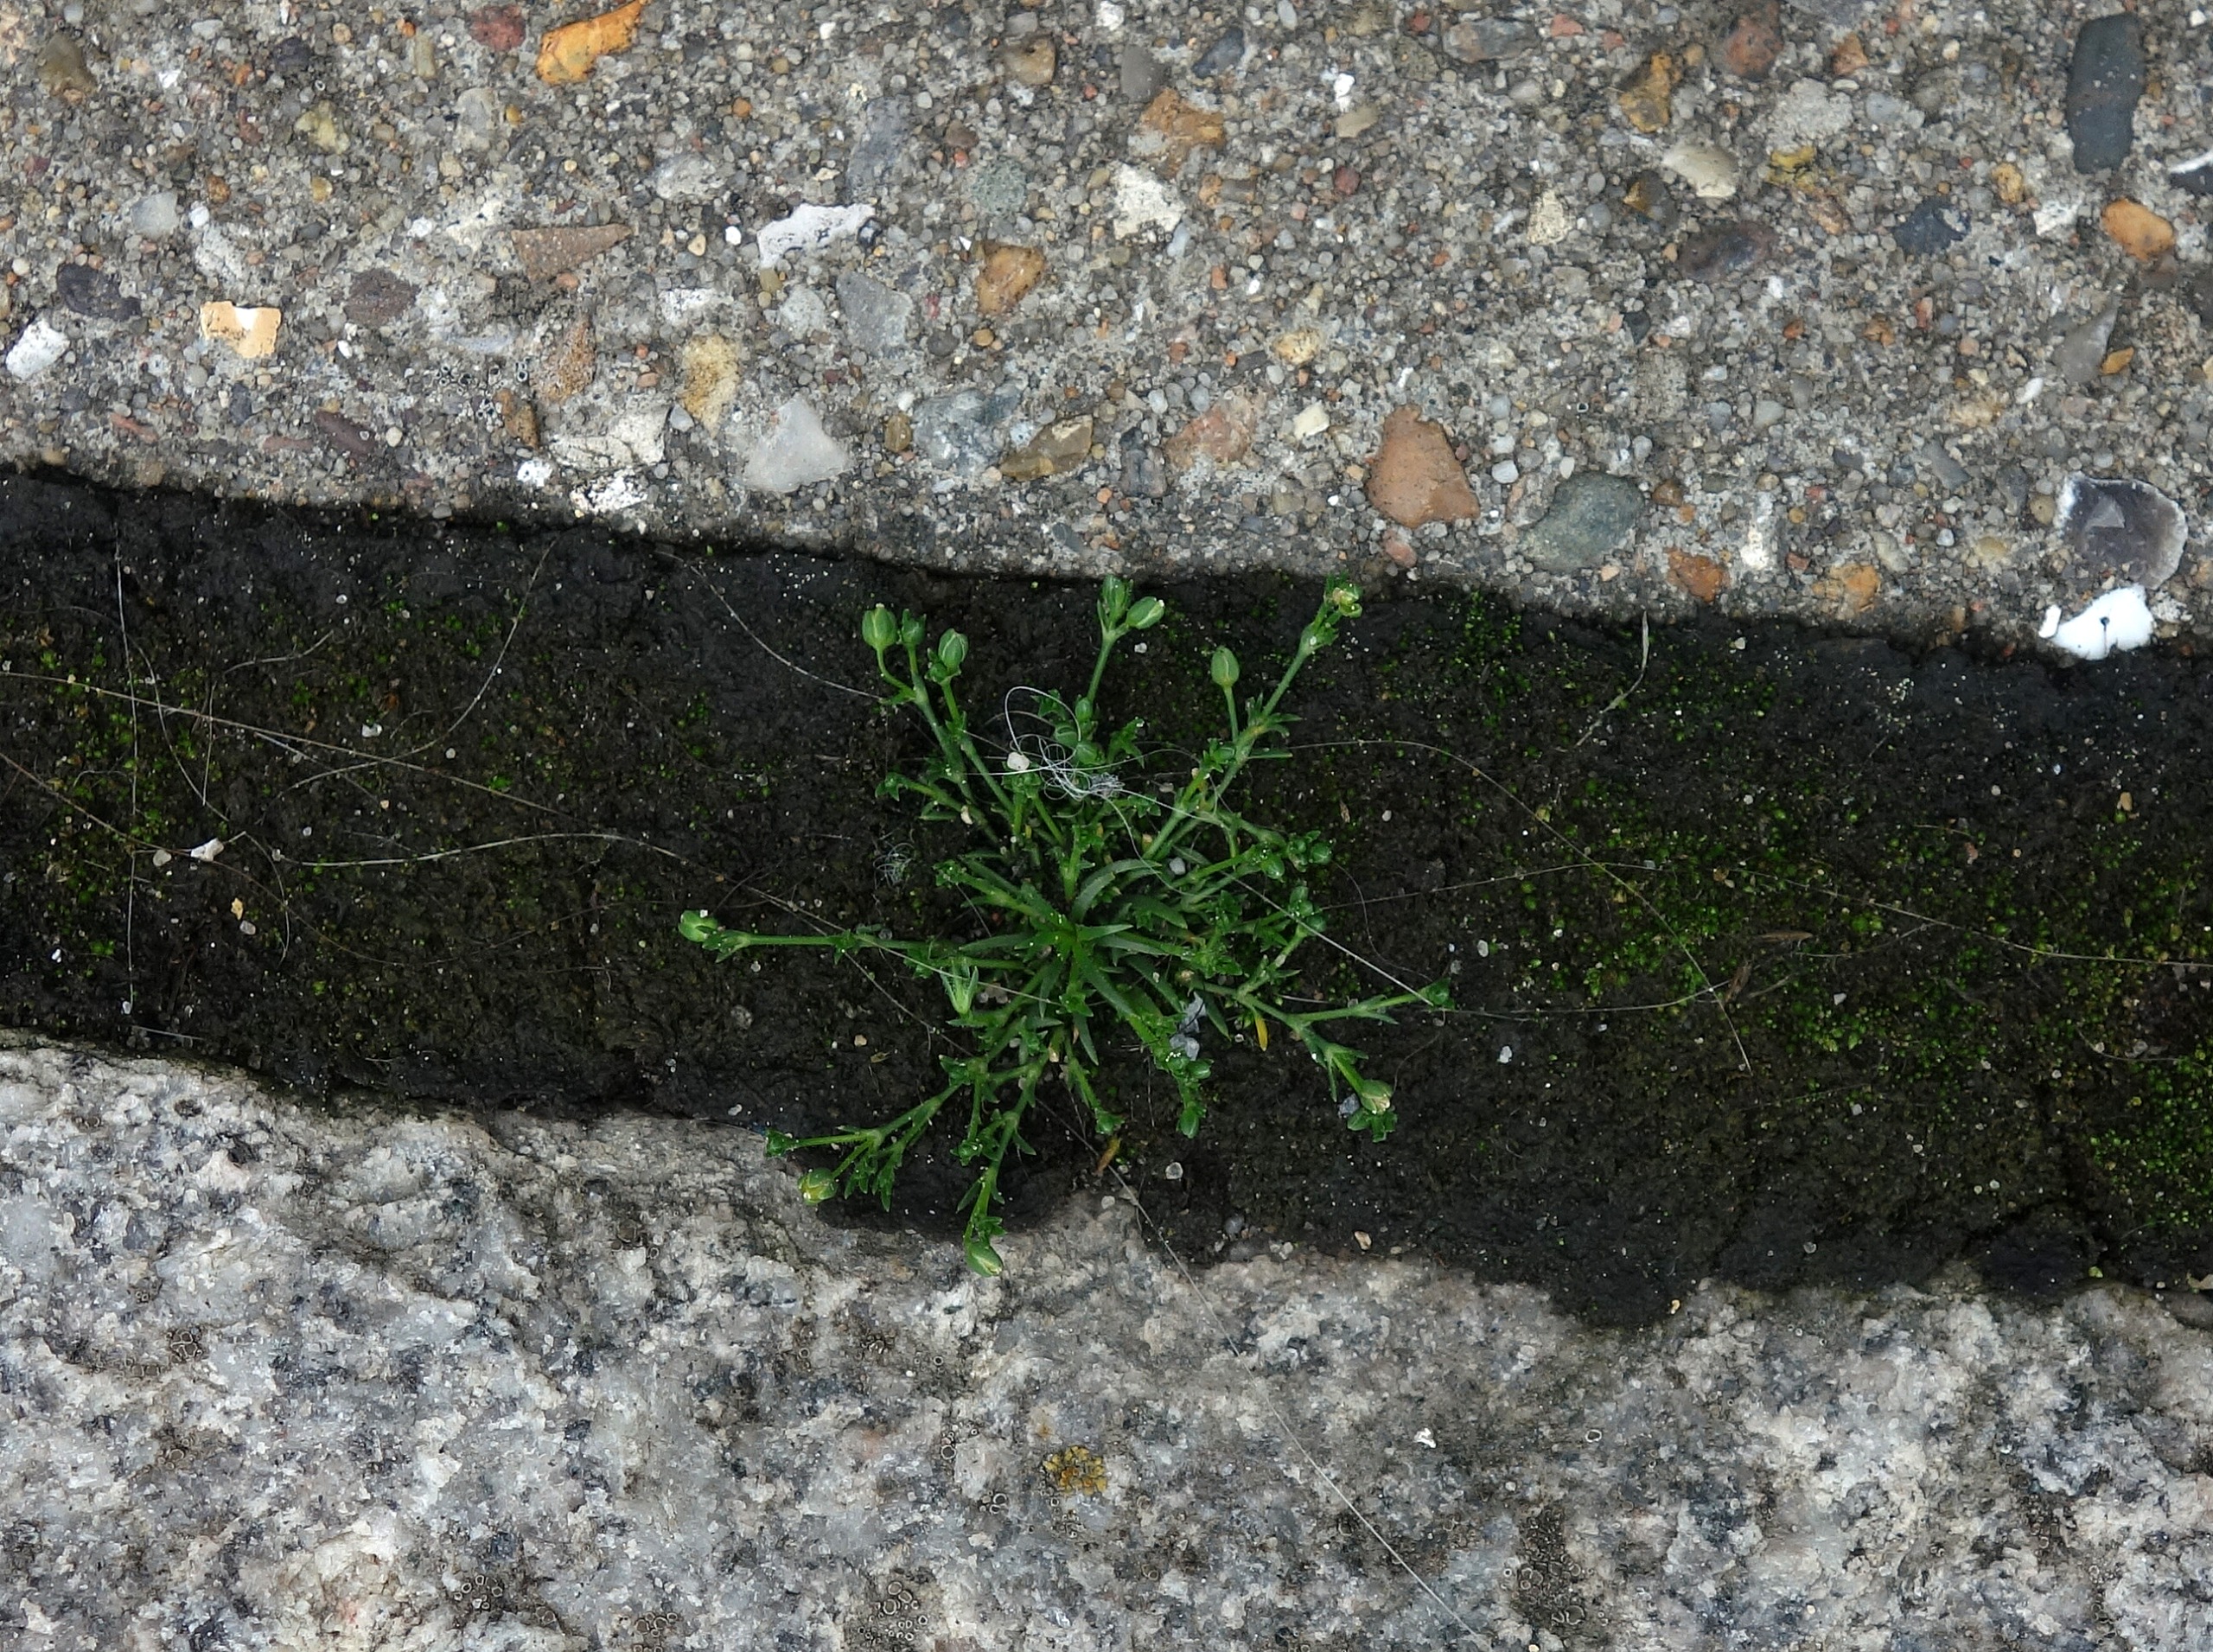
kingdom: Plantae
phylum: Tracheophyta
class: Magnoliopsida
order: Caryophyllales
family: Caryophyllaceae
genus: Sagina
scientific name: Sagina procumbens
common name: Almindelig firling
